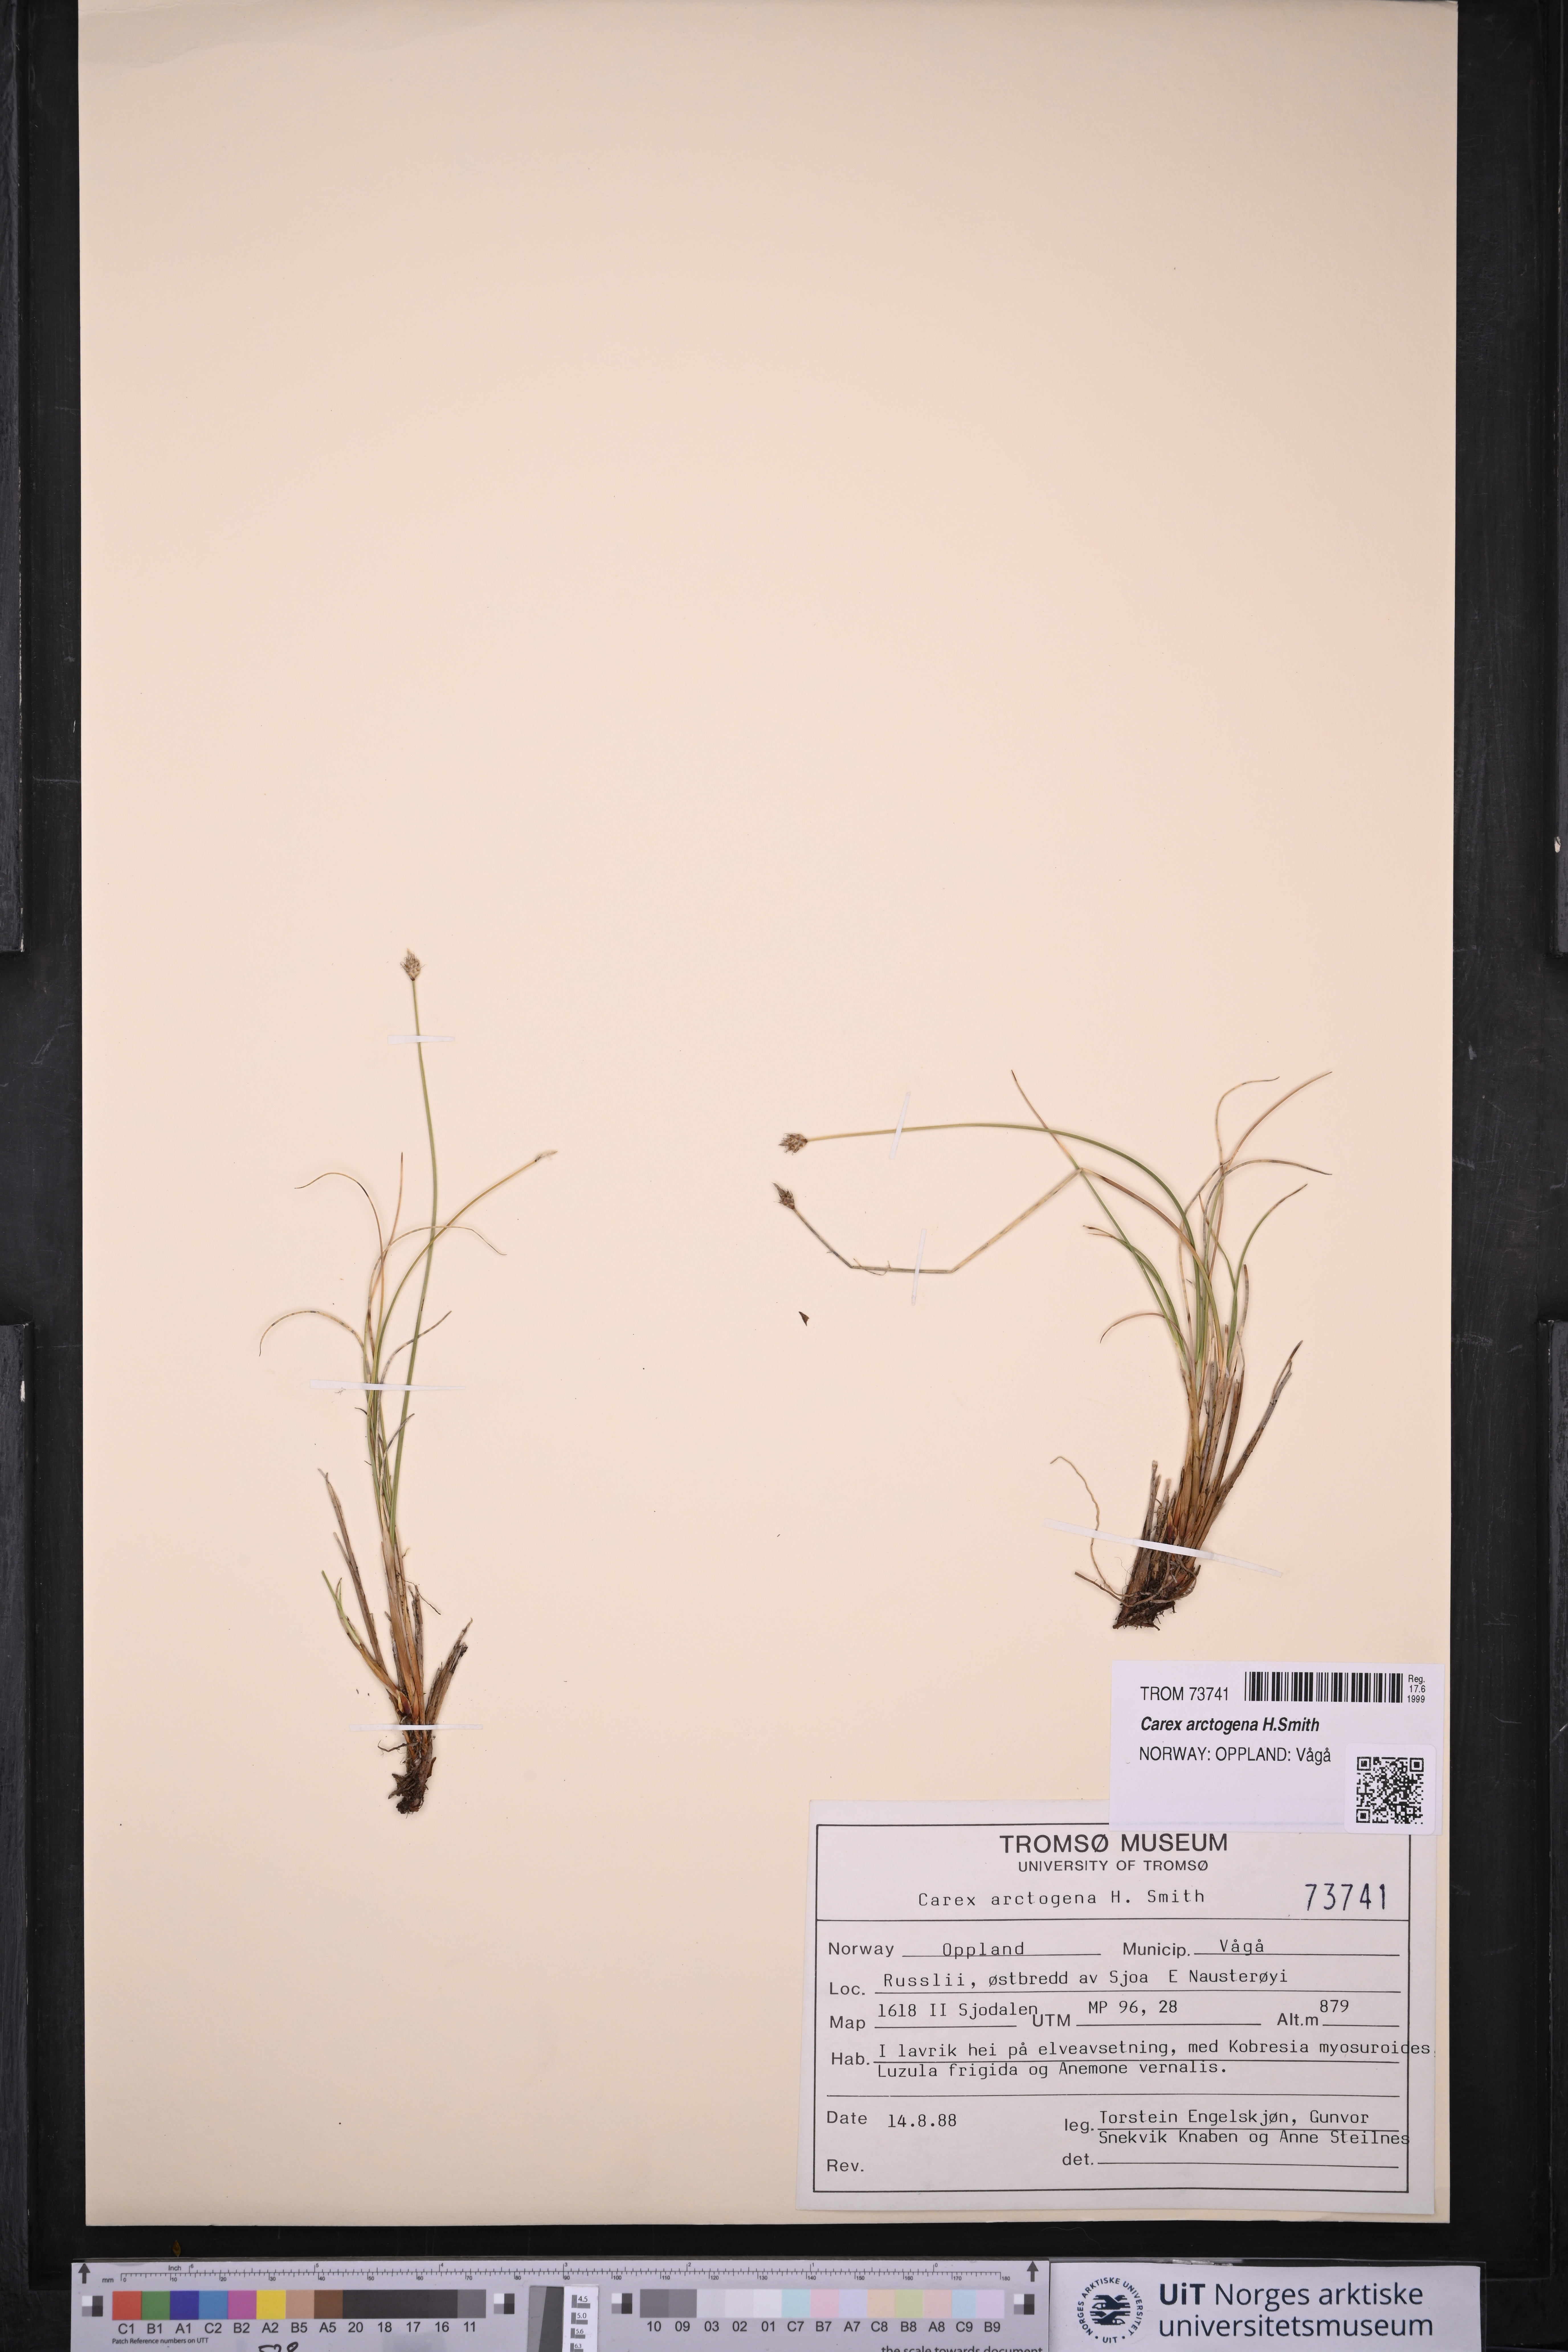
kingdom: Plantae
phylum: Tracheophyta
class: Liliopsida
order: Poales
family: Cyperaceae
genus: Carex
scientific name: Carex arctogena
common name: Black sedge
